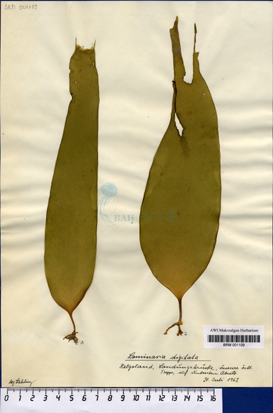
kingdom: Chromista
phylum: Ochrophyta
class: Phaeophyceae
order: Laminariales
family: Laminariaceae
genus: Laminaria
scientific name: Laminaria digitata
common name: Oarweed
